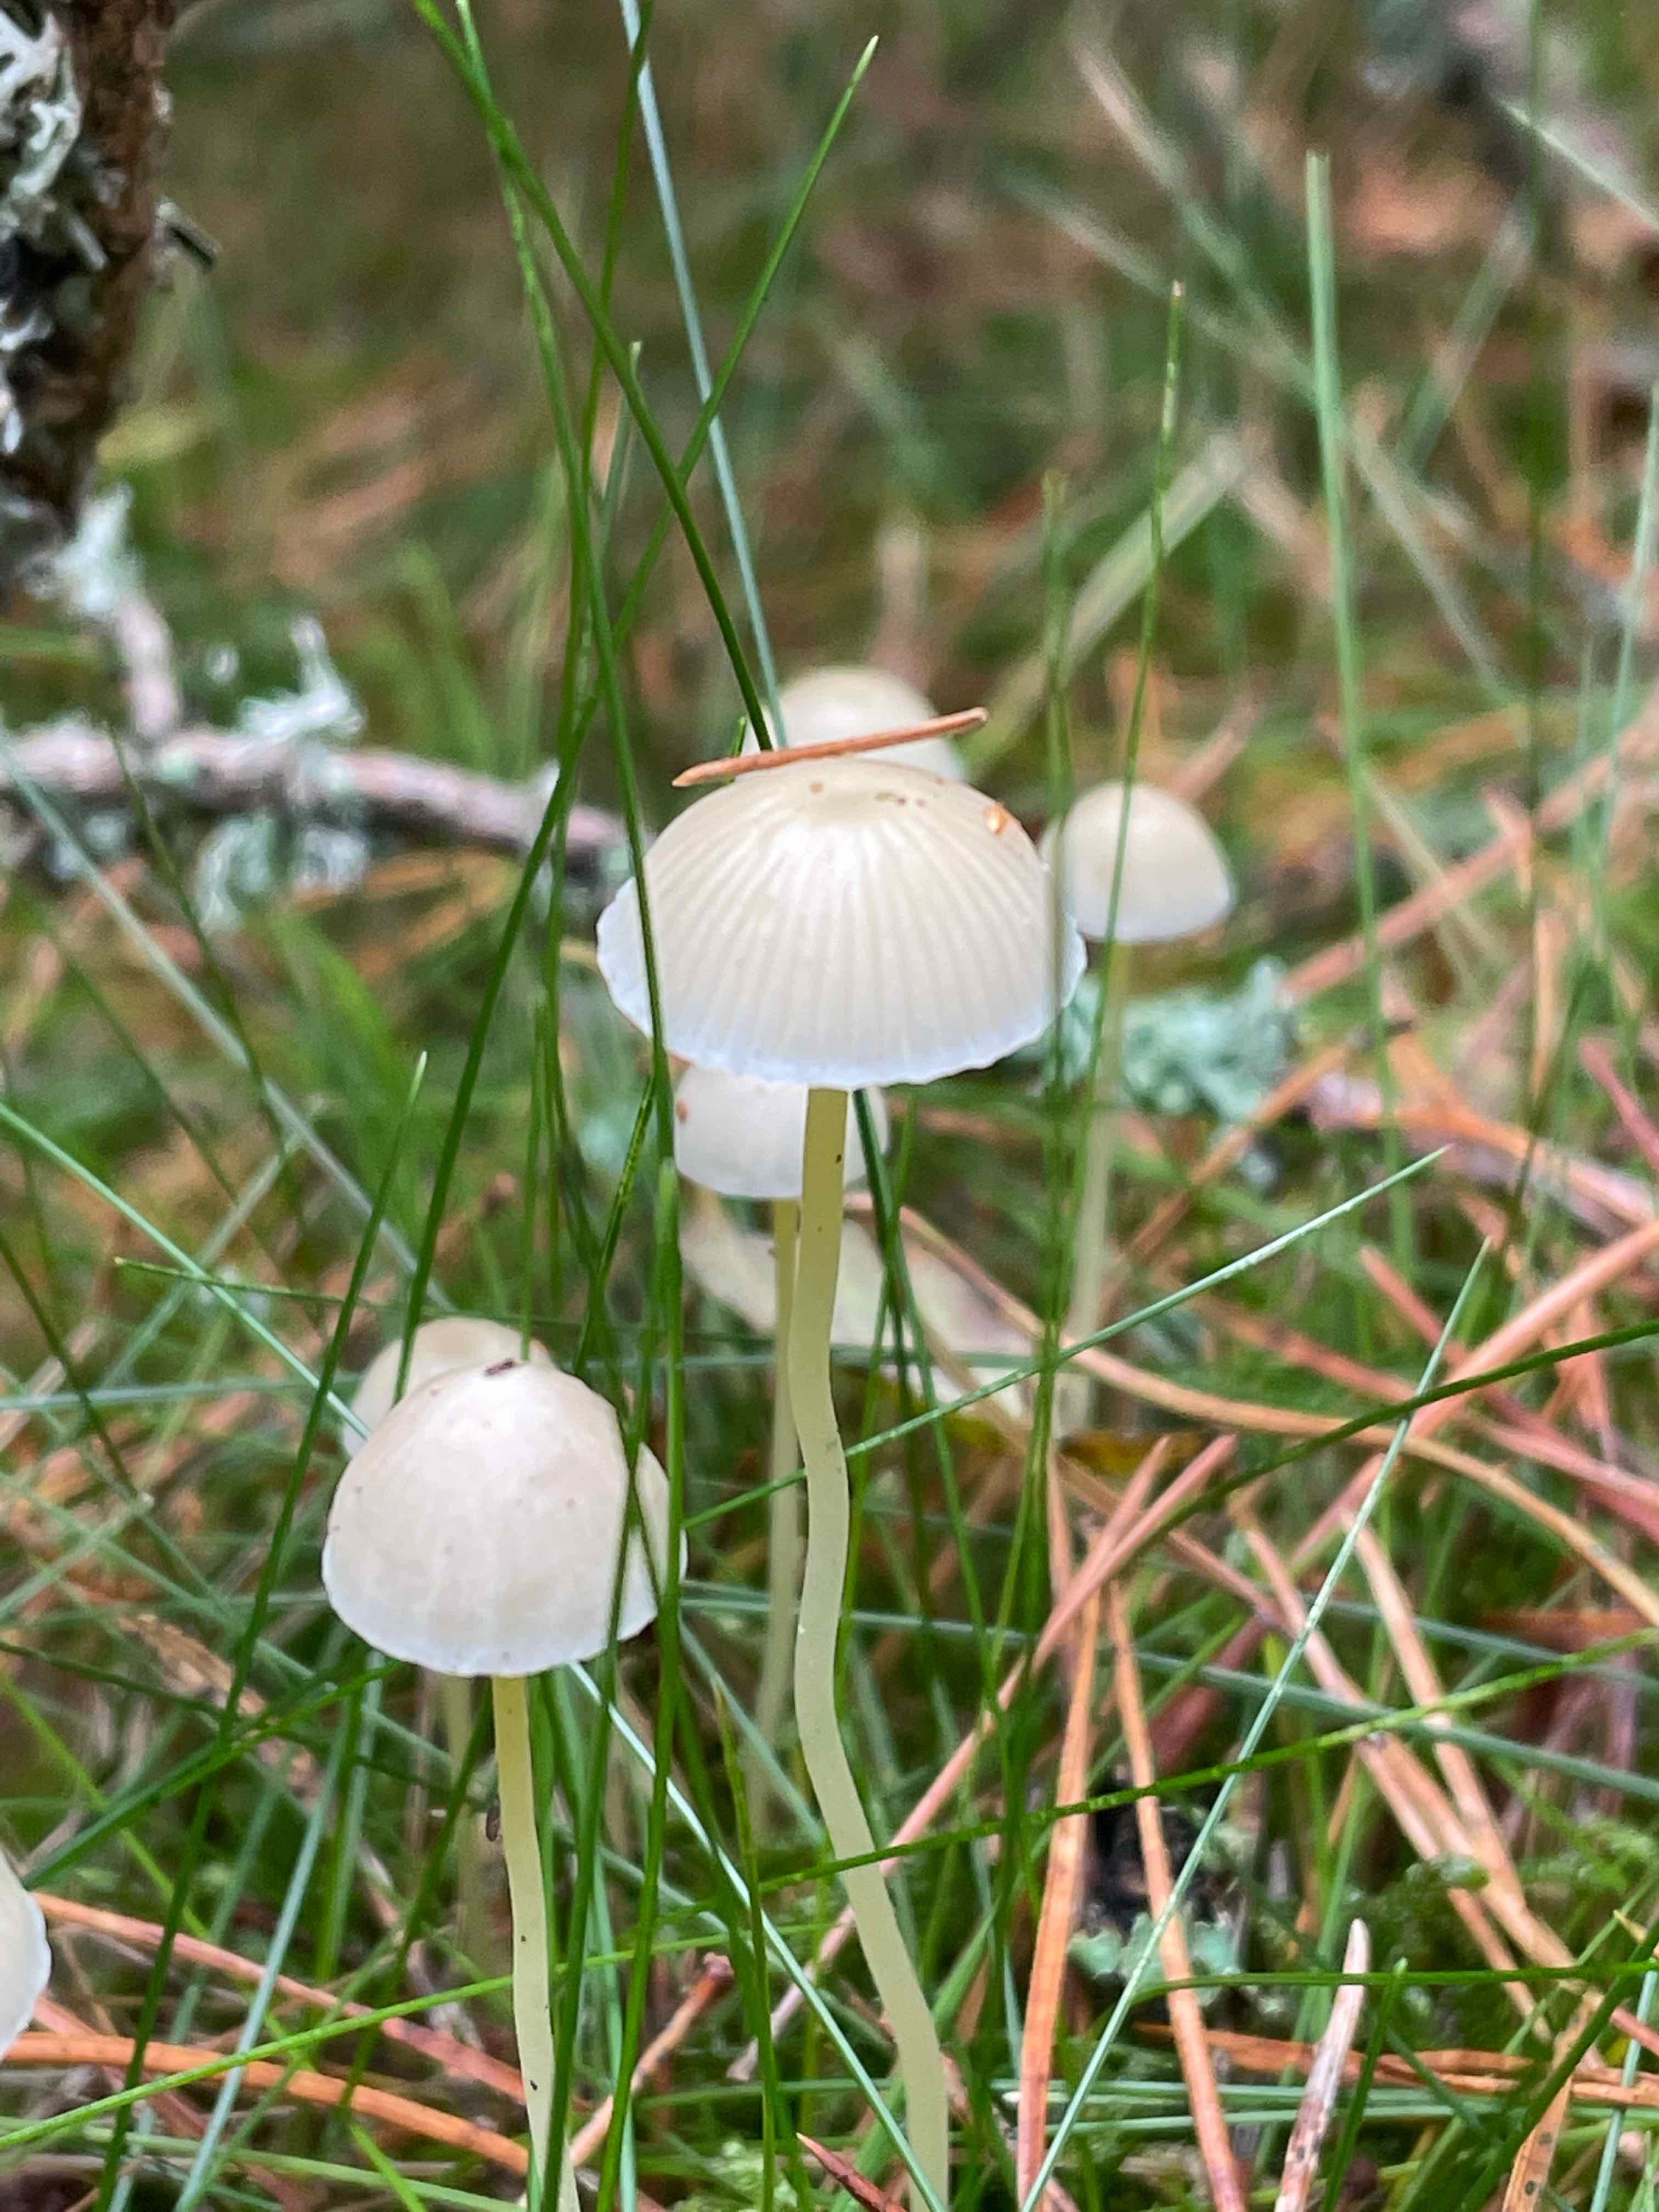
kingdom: Fungi
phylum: Basidiomycota
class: Agaricomycetes
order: Agaricales
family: Mycenaceae
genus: Mycena
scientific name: Mycena epipterygia
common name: gulstokket huesvamp
